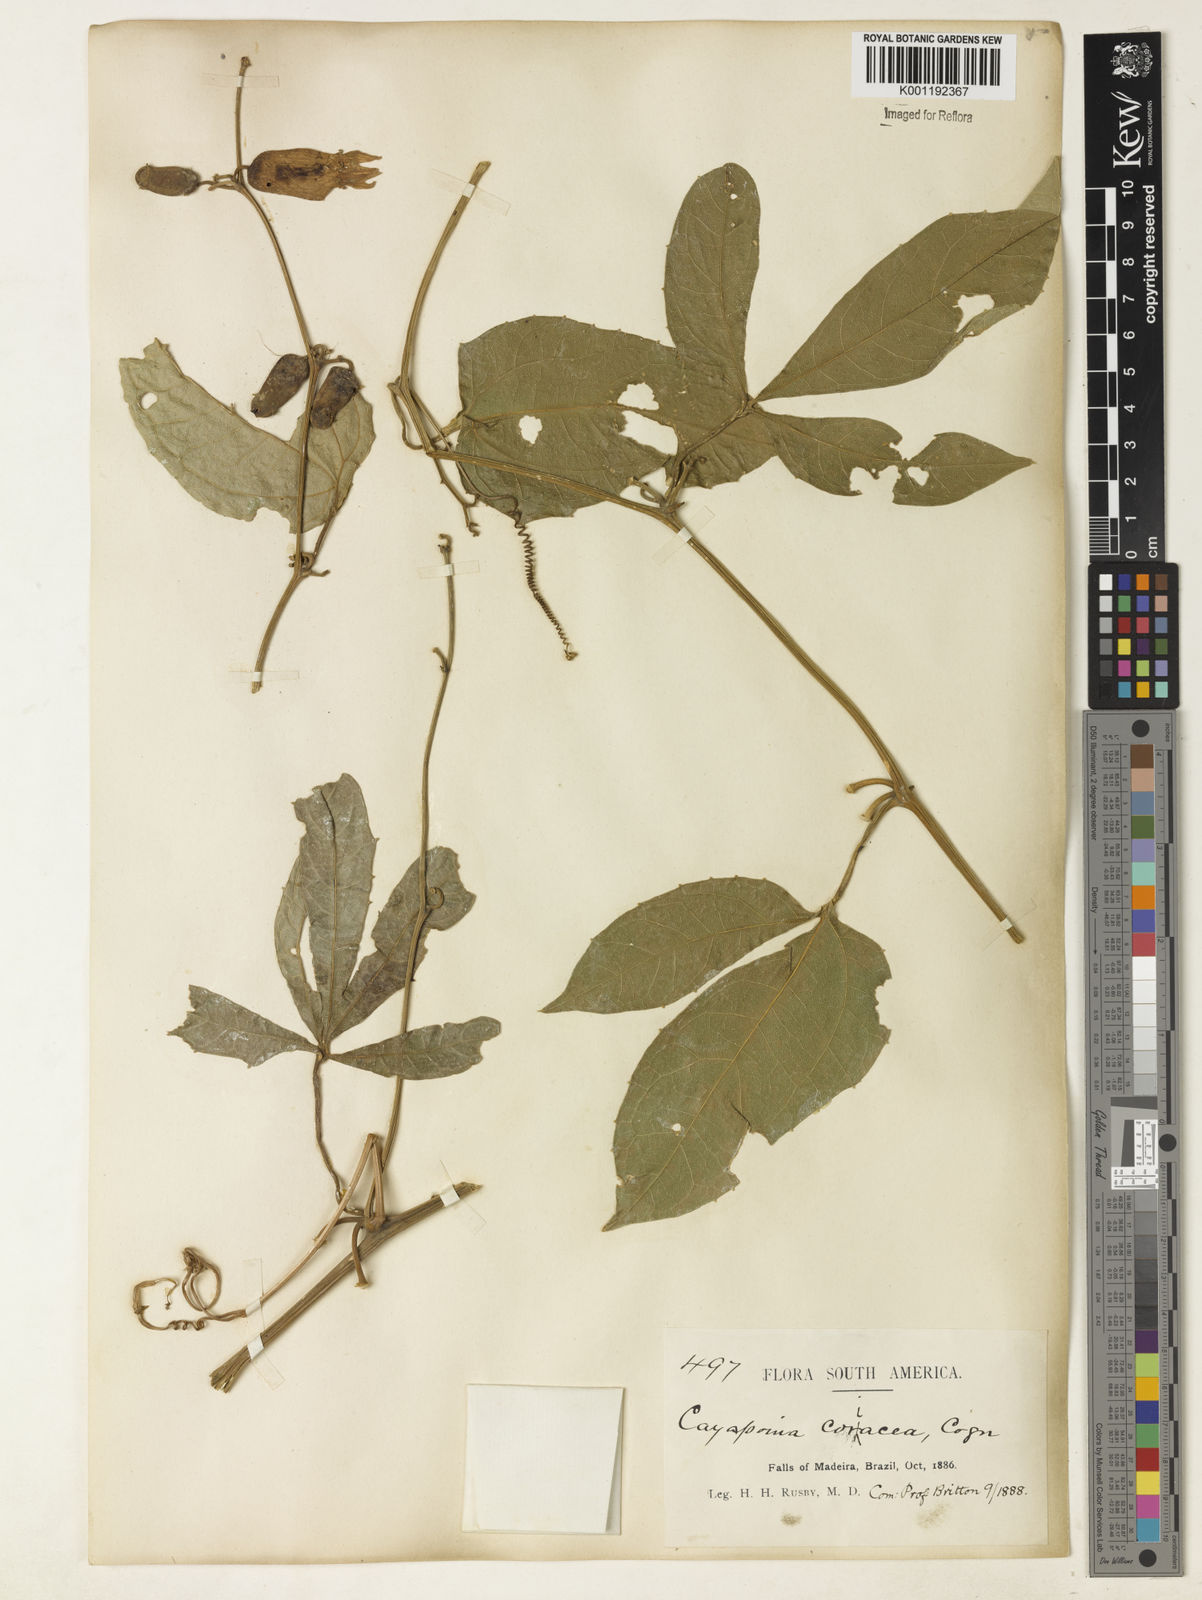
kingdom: Plantae
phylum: Tracheophyta
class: Magnoliopsida
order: Cucurbitales
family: Cucurbitaceae
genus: Cayaponia
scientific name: Cayaponia tubulosa
